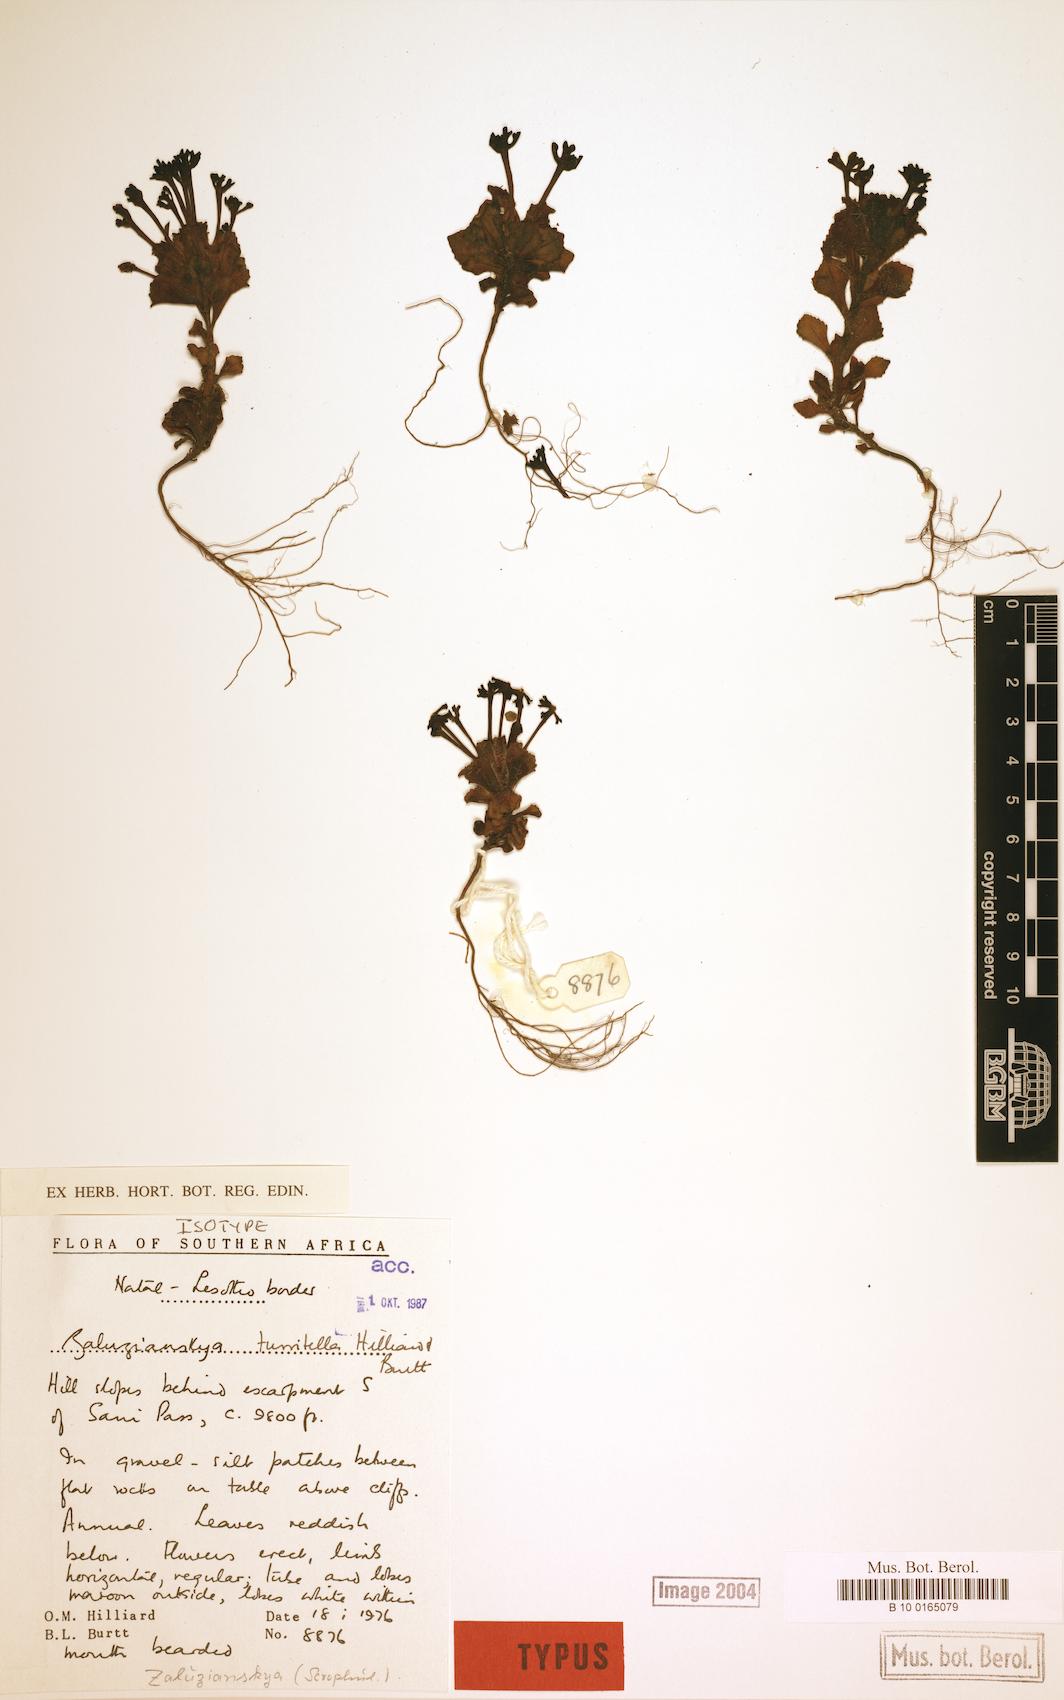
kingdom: Plantae
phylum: Tracheophyta
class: Magnoliopsida
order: Lamiales
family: Scrophulariaceae
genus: Zaluzianskya
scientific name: Zaluzianskya turritella
